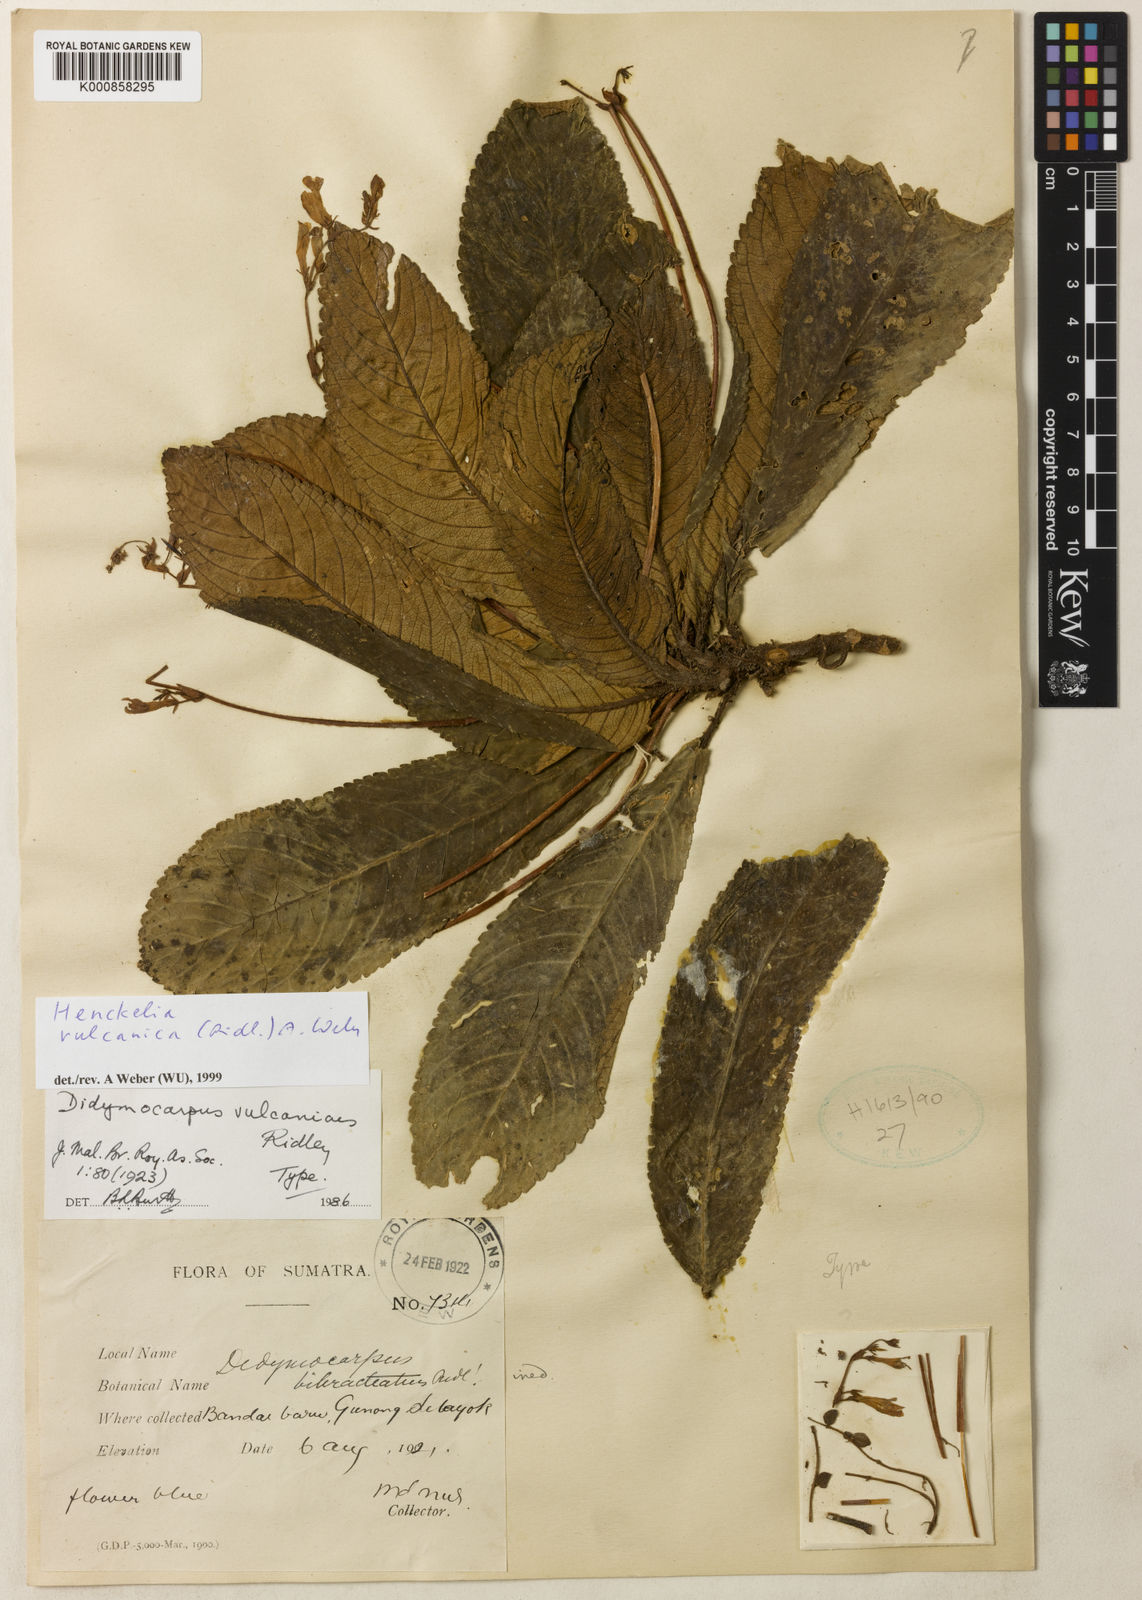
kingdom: Plantae
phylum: Tracheophyta
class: Magnoliopsida
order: Lamiales
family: Gesneriaceae
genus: Codonoboea
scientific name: Codonoboea vulcanica
